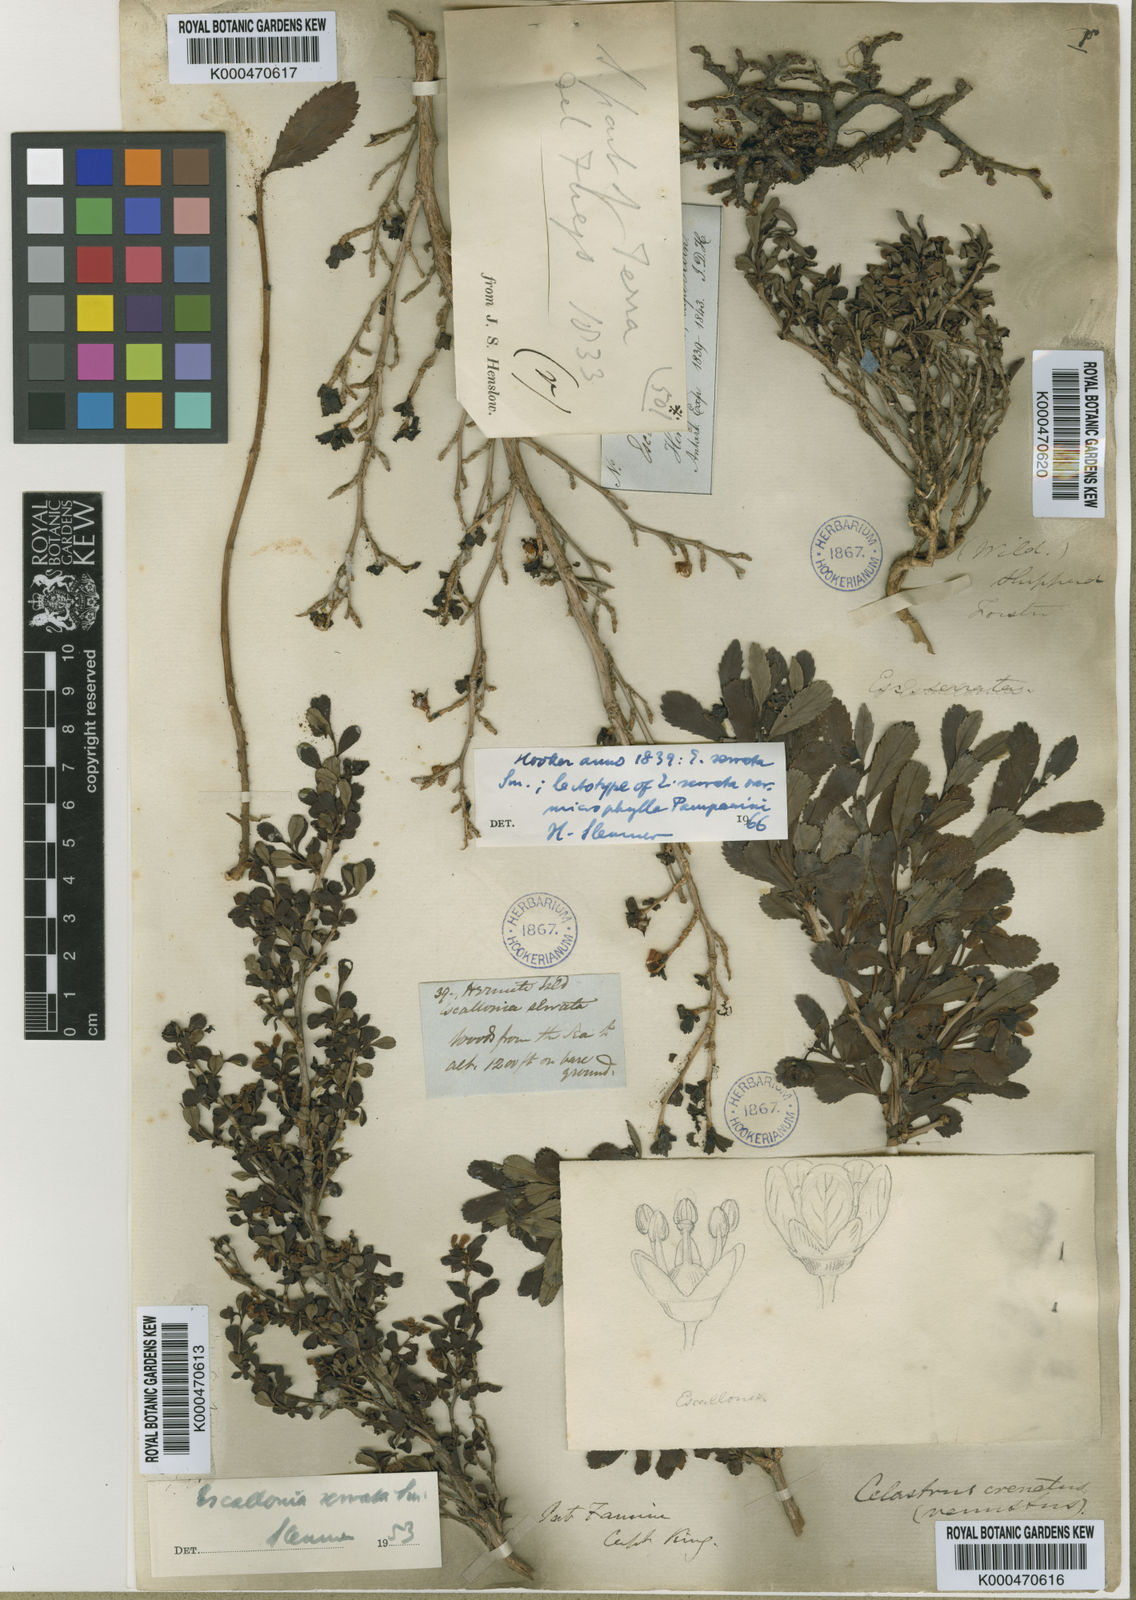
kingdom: Plantae
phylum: Tracheophyta
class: Magnoliopsida
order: Escalloniales
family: Escalloniaceae
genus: Escallonia
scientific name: Escallonia serrata
